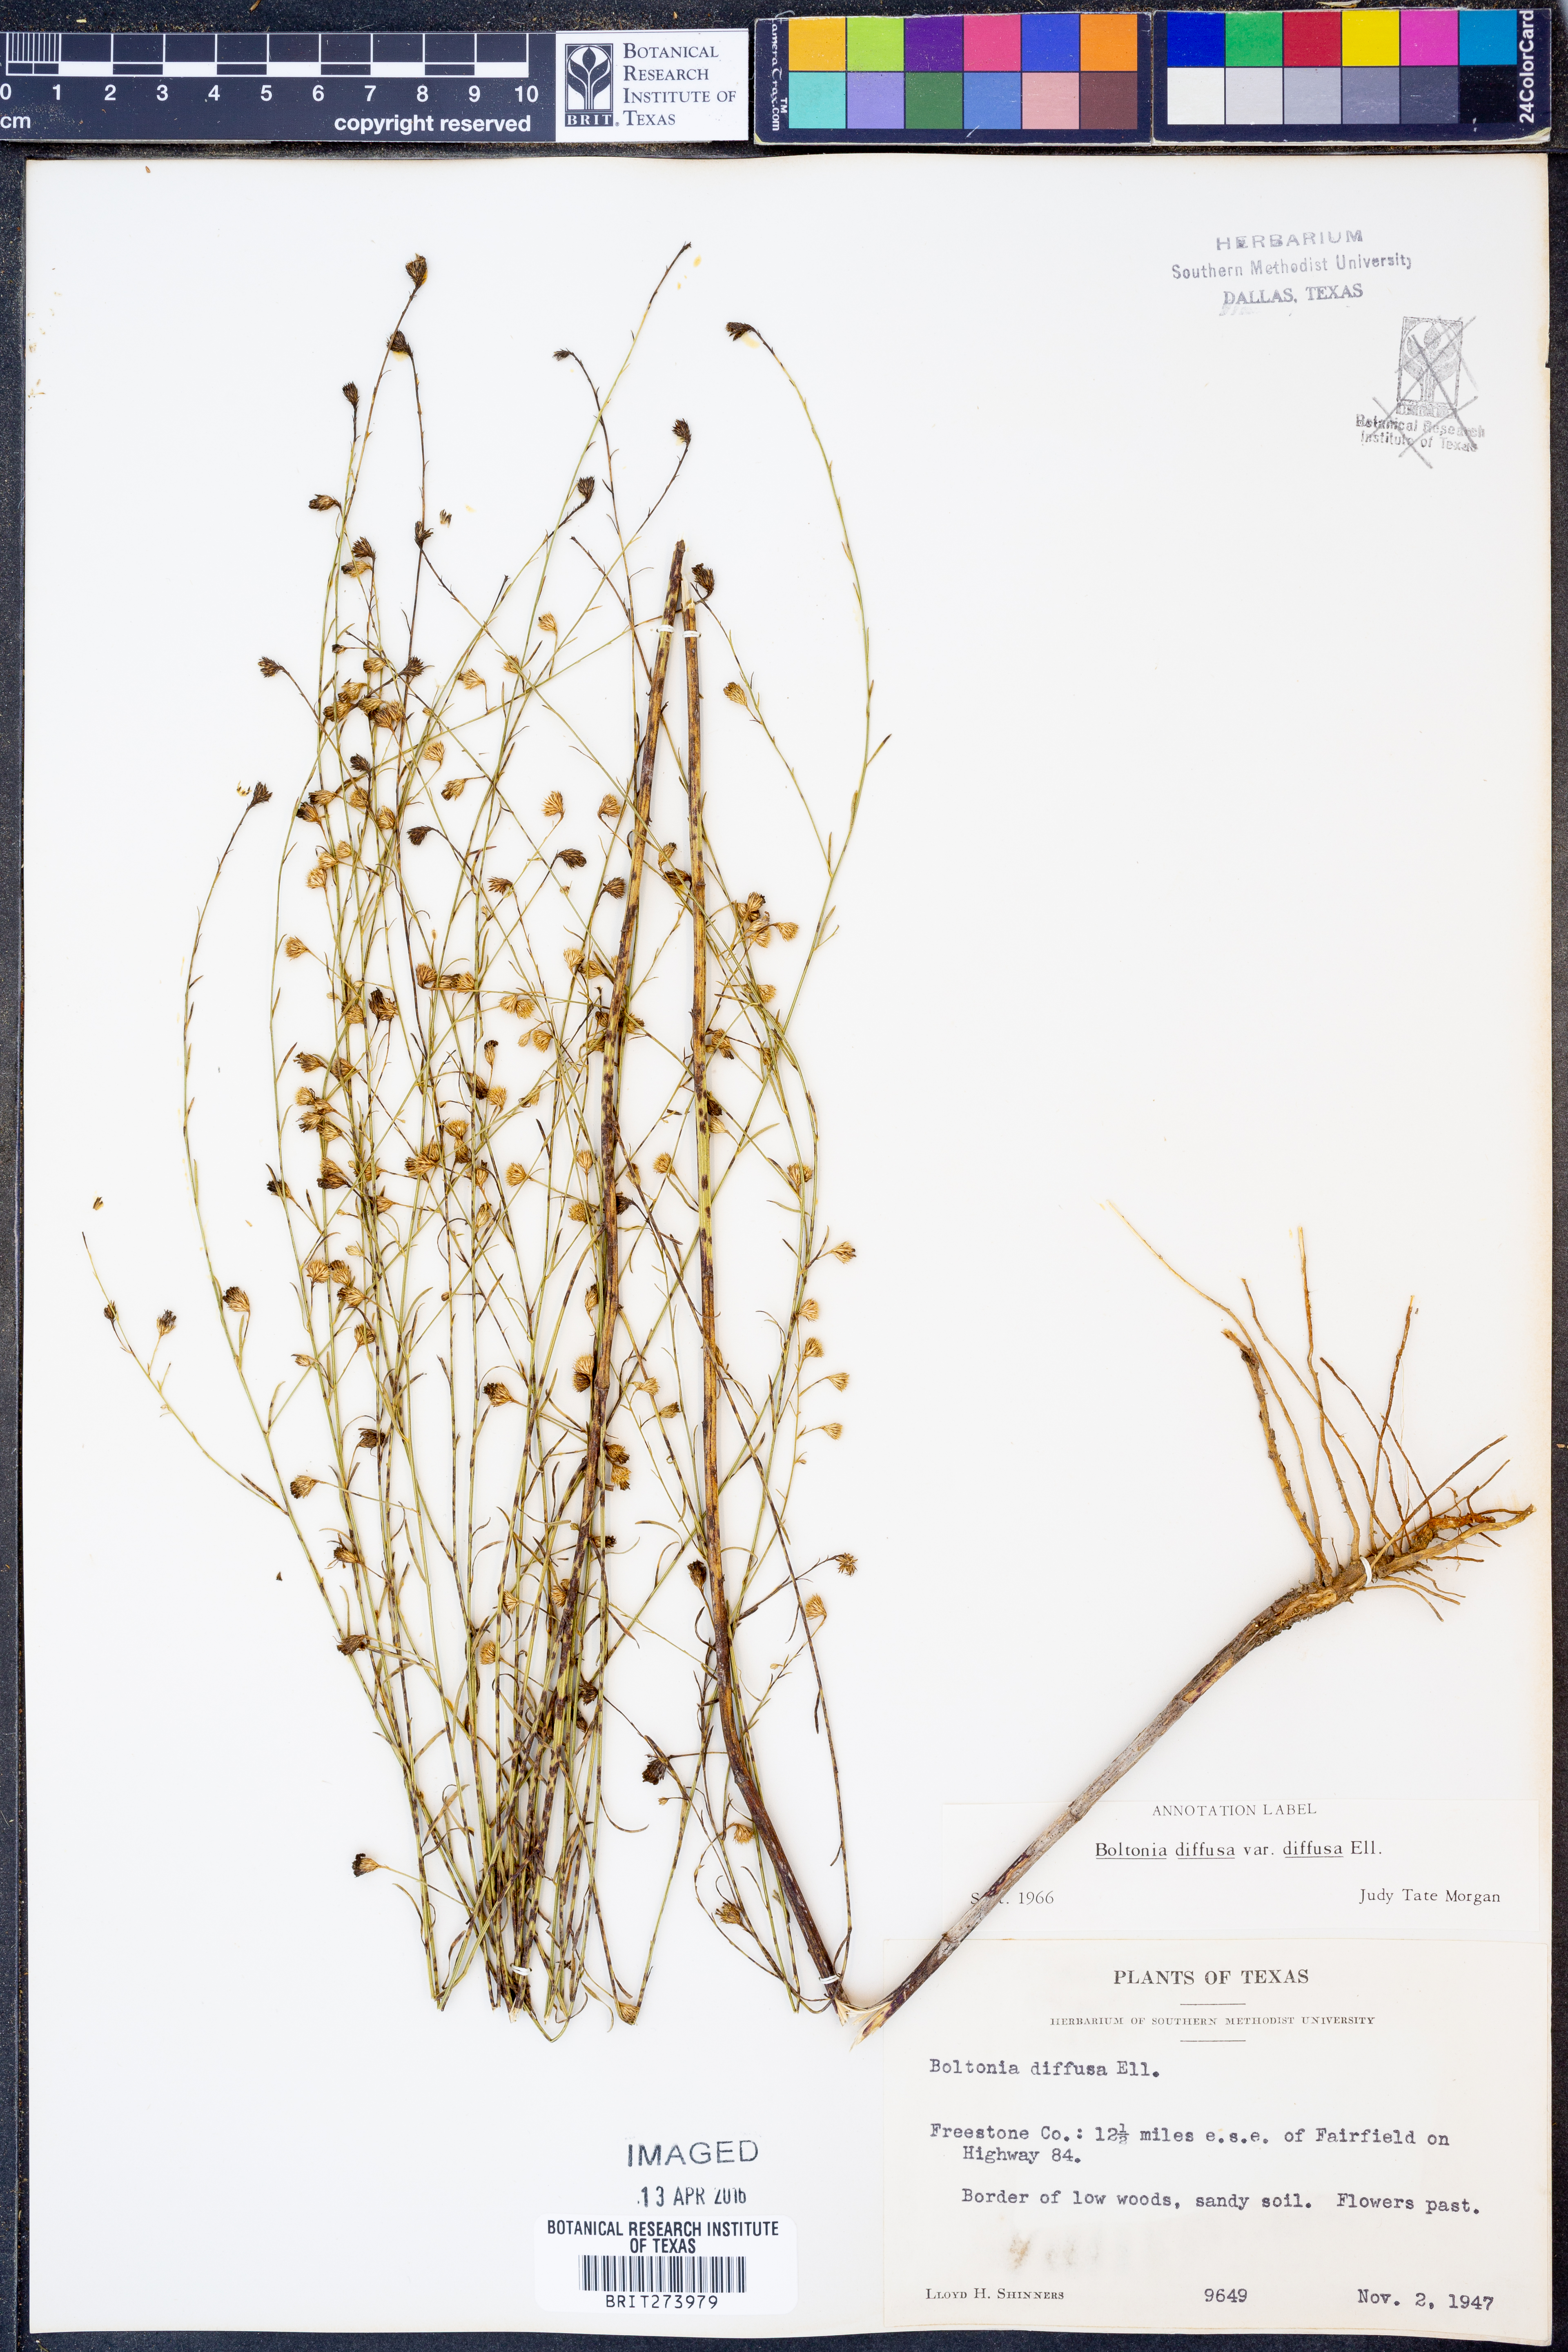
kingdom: Plantae
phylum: Tracheophyta
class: Magnoliopsida
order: Asterales
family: Asteraceae
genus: Boltonia
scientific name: Boltonia diffusa
